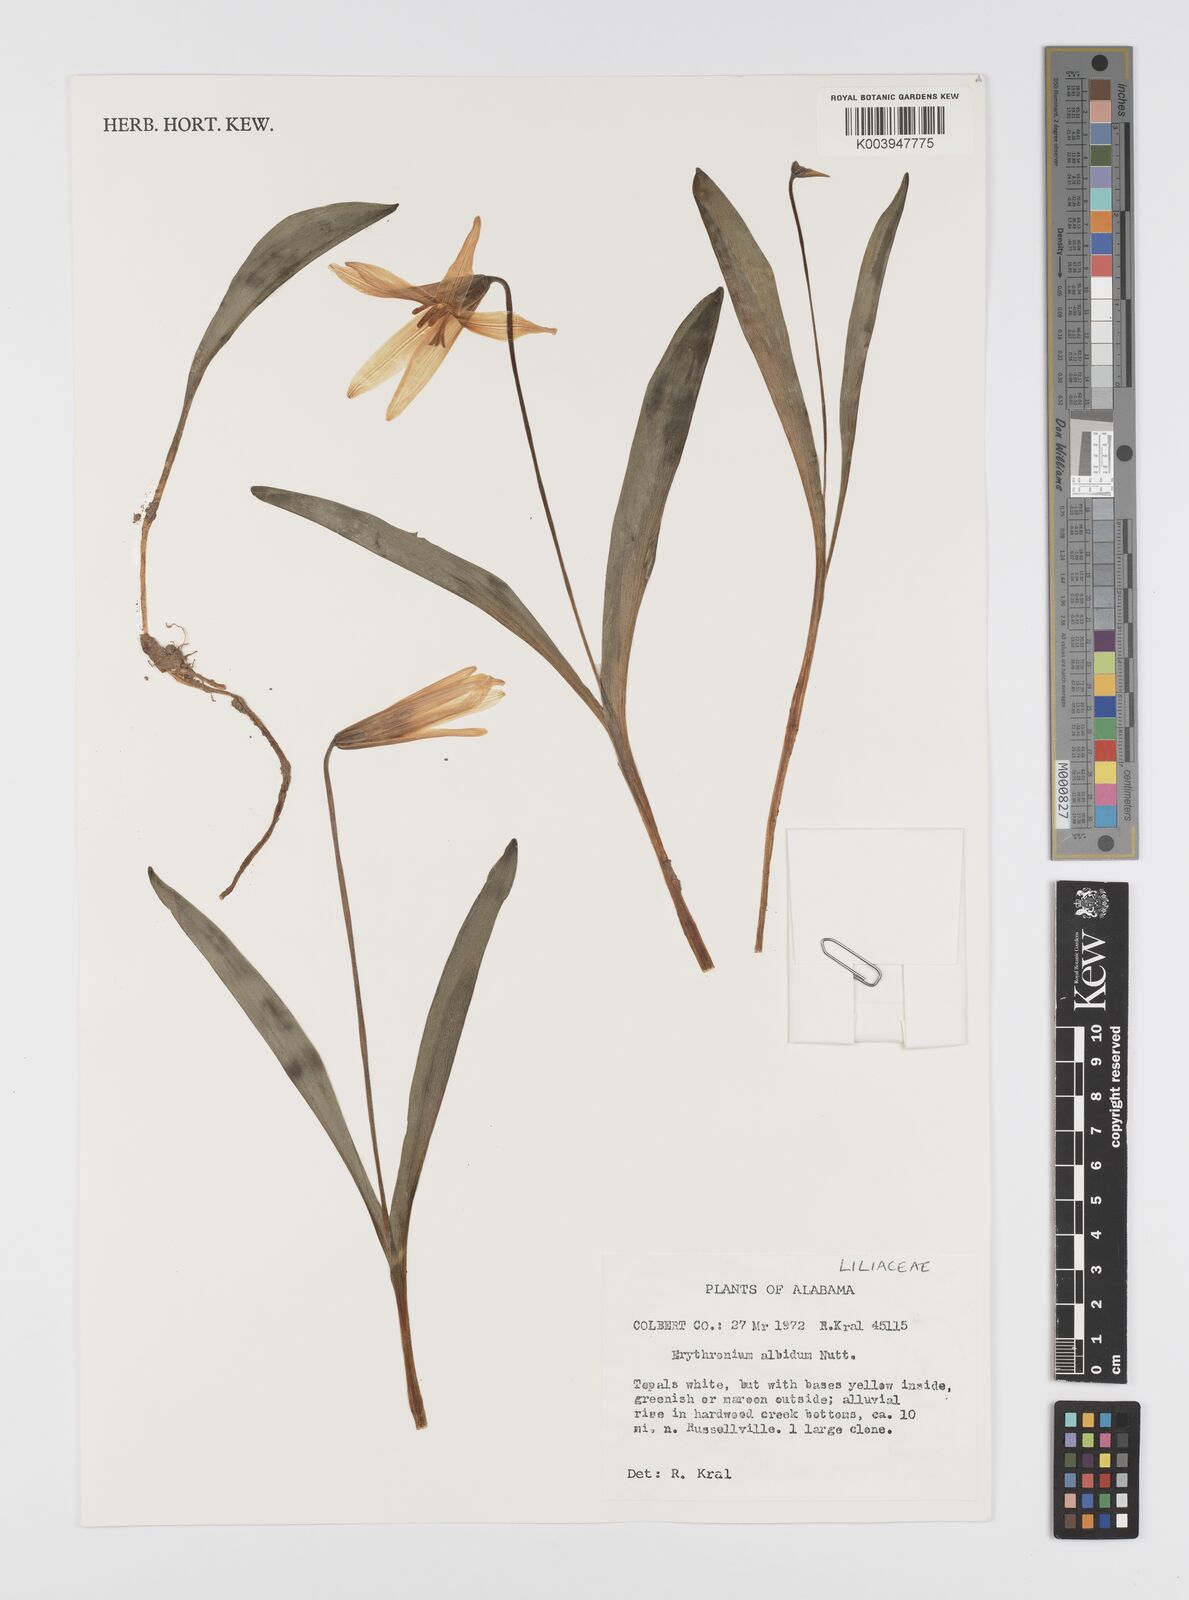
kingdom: Plantae
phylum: Tracheophyta
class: Liliopsida
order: Liliales
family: Liliaceae
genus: Erythronium
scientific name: Erythronium albidum
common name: White trout-lily
